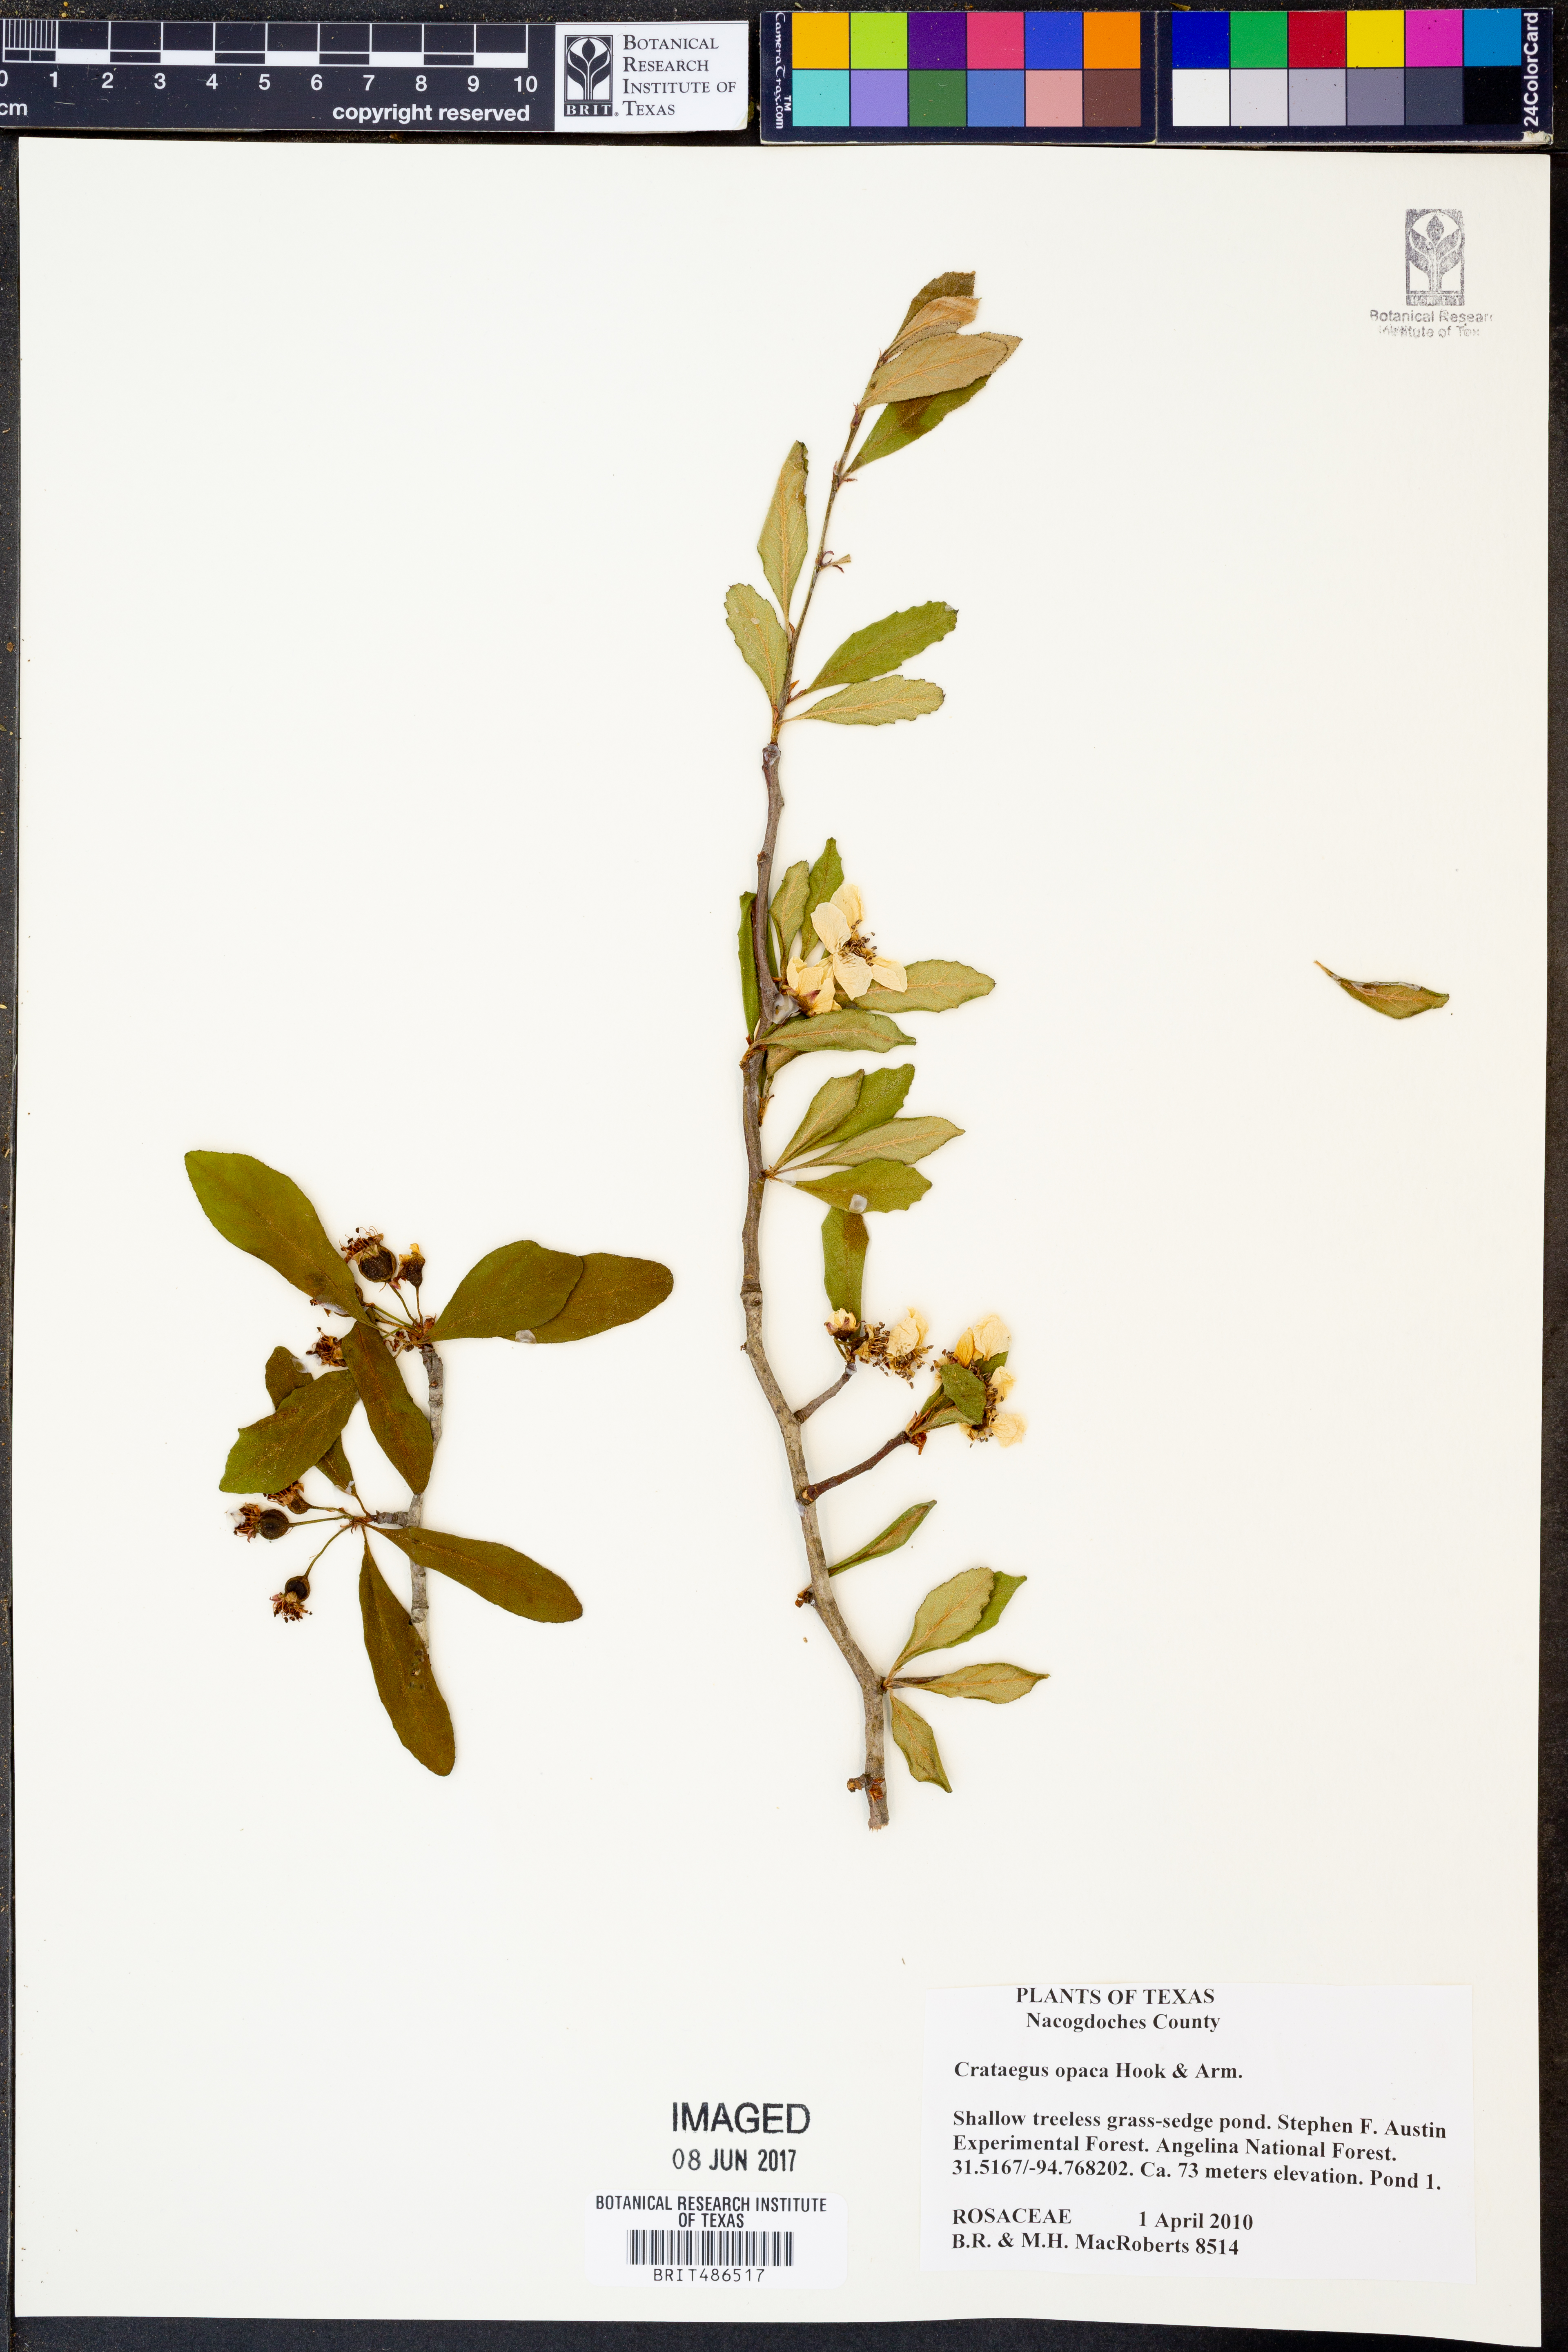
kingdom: Plantae
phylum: Tracheophyta
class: Magnoliopsida
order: Rosales
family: Rosaceae
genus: Crataegus
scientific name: Crataegus opaca
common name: Apple haw
